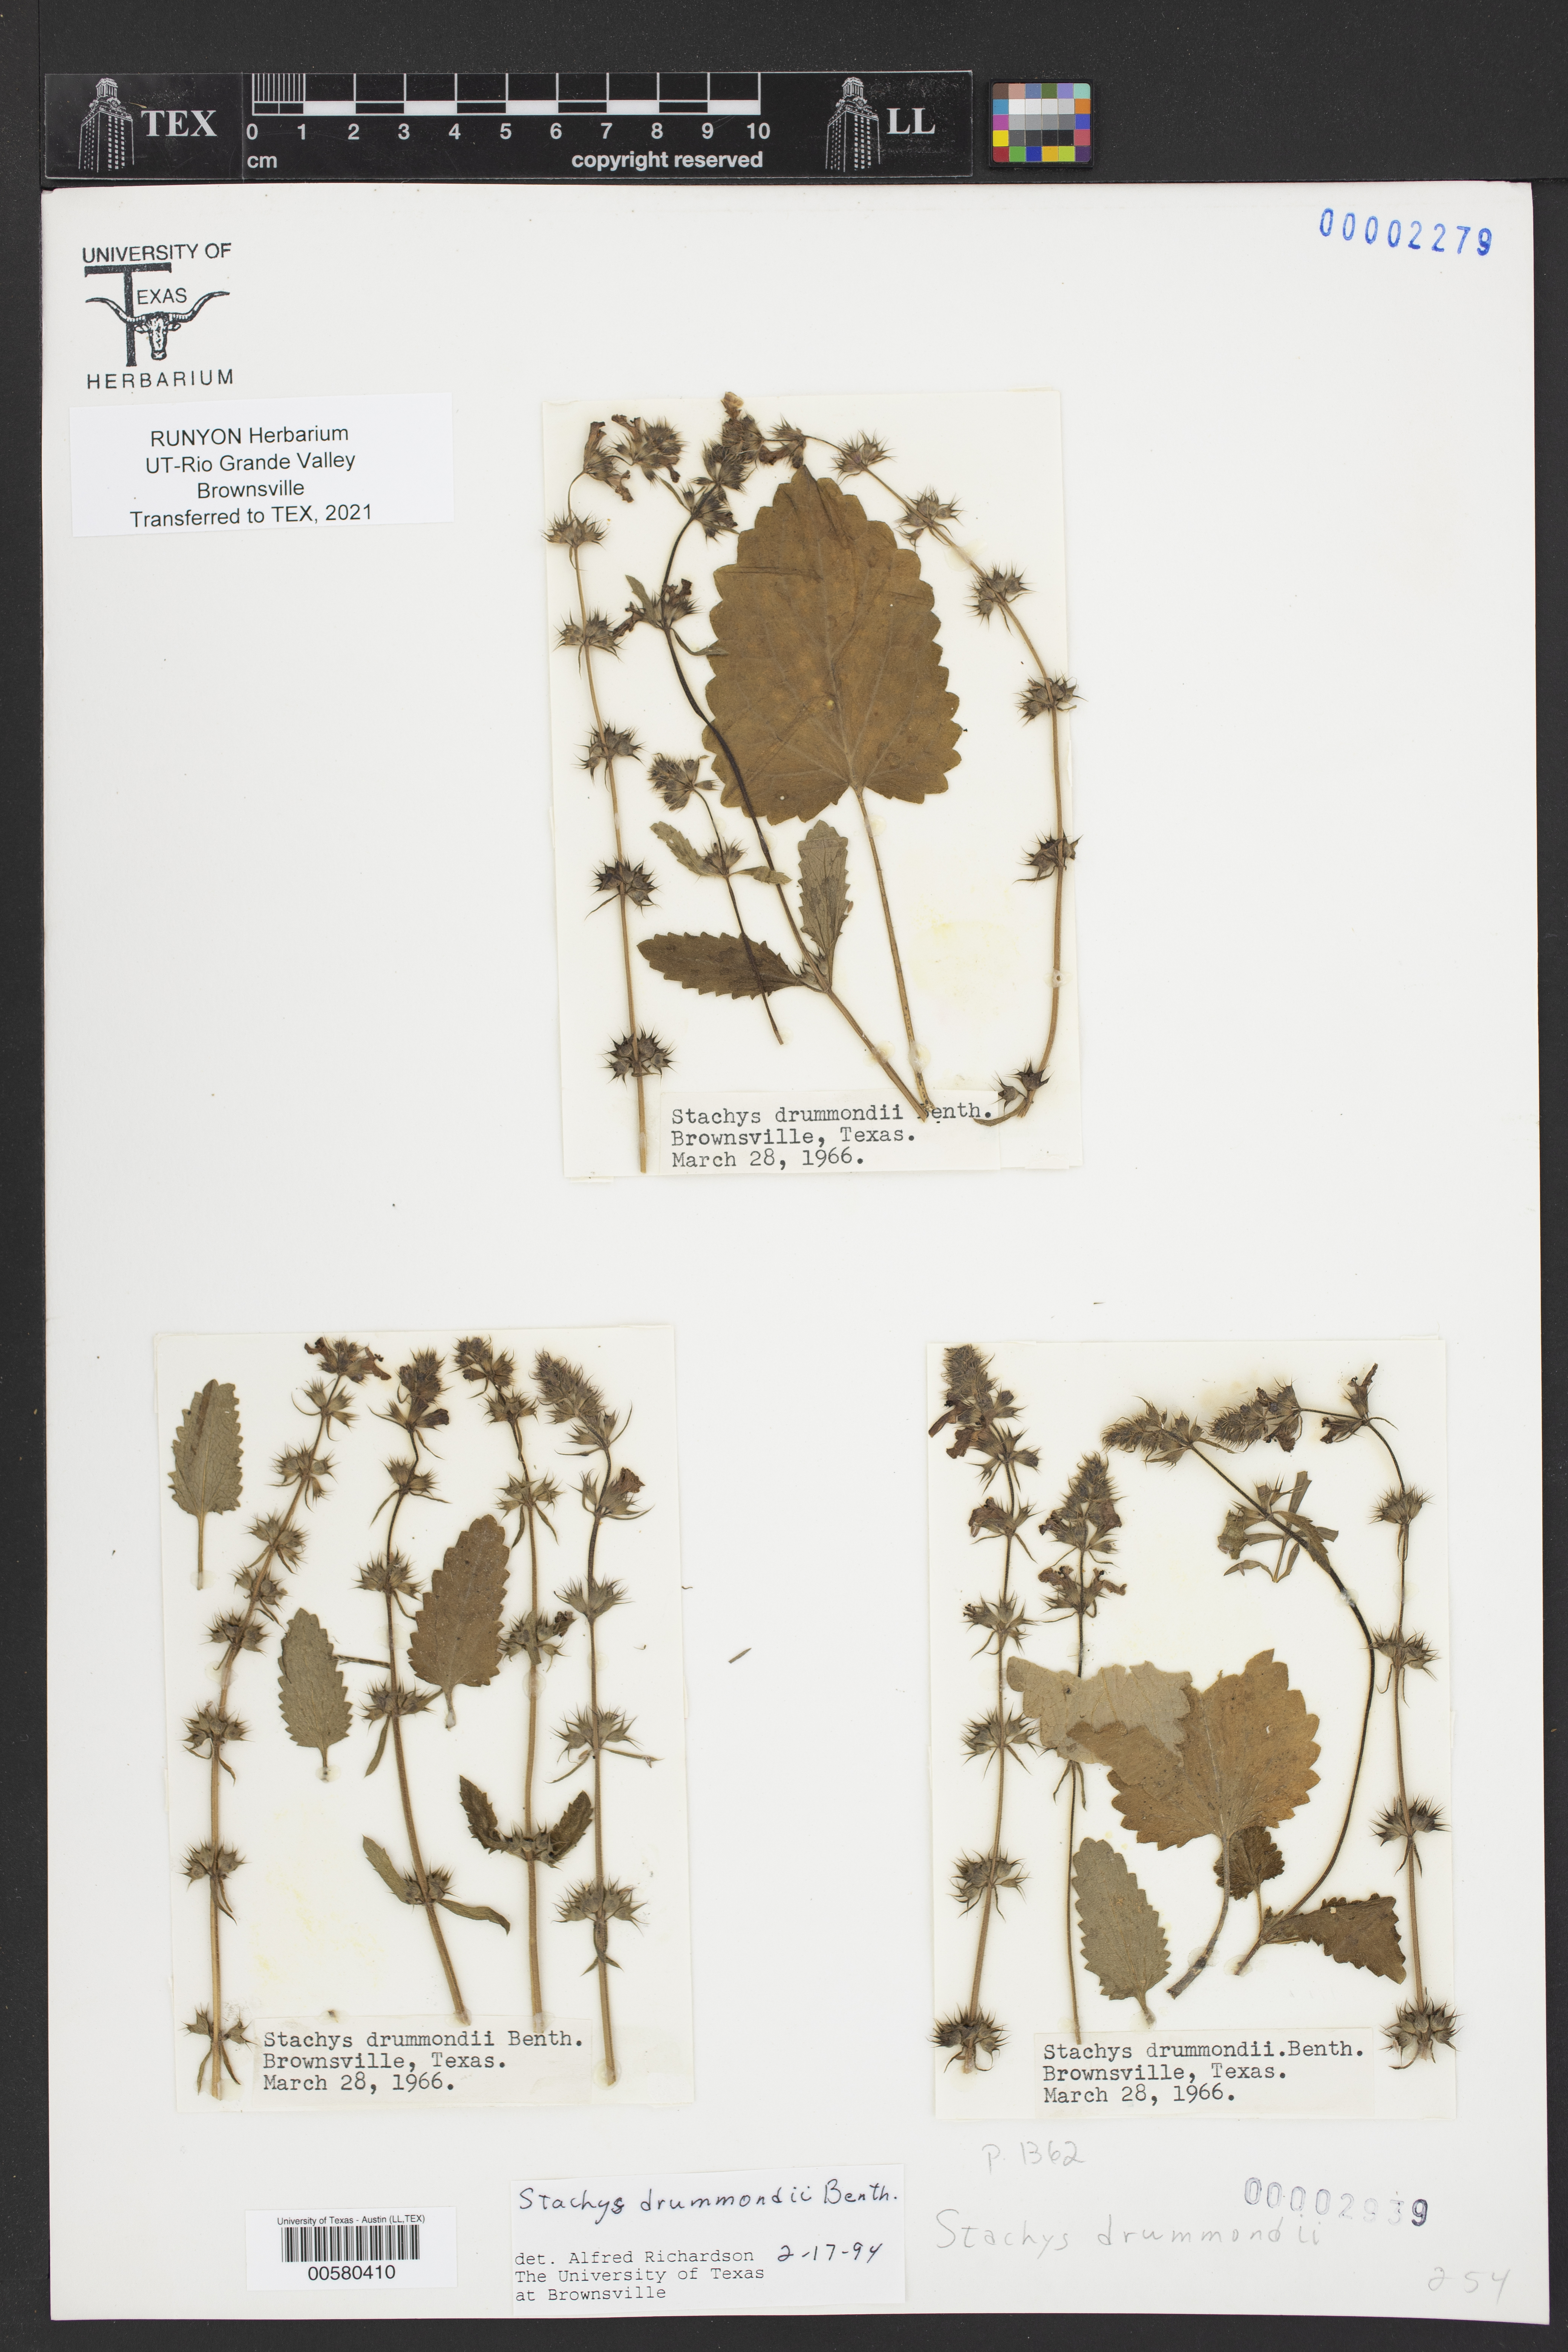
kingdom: Plantae
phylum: Tracheophyta
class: Magnoliopsida
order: Lamiales
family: Lamiaceae
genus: Stachys
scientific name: Stachys drummondii
